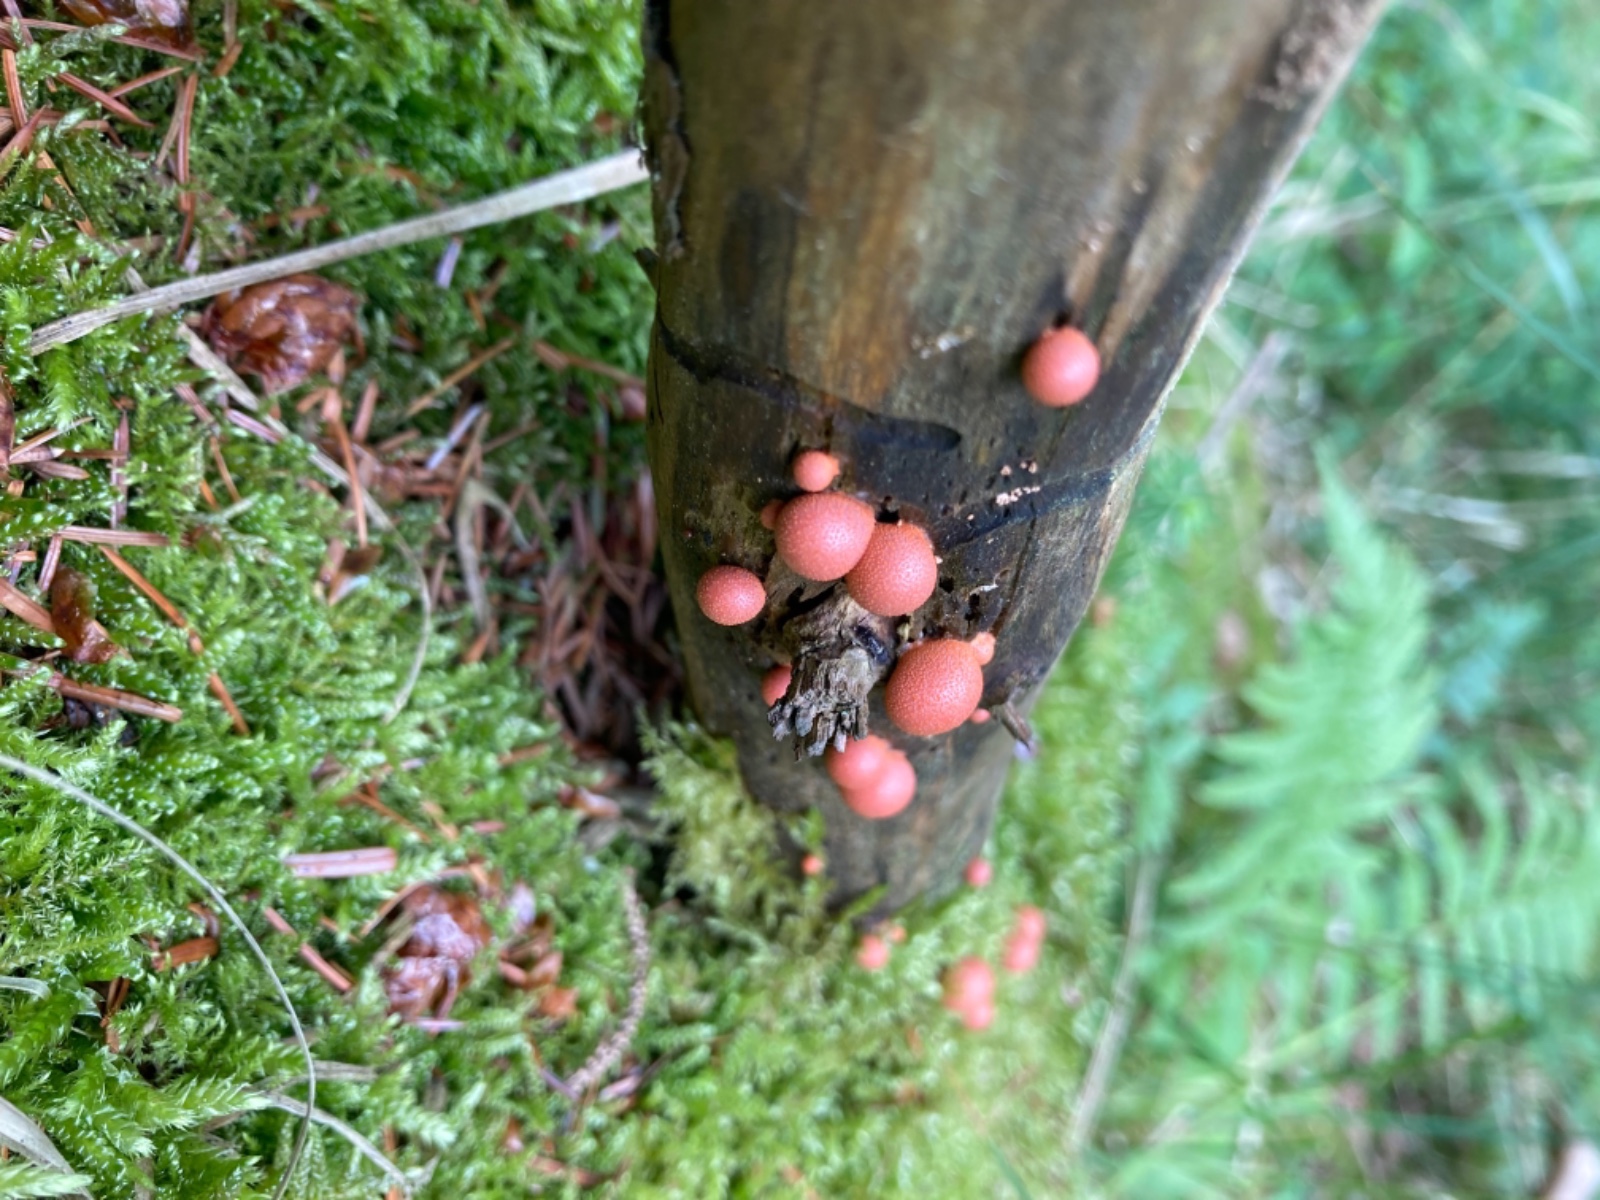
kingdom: Protozoa
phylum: Mycetozoa
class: Myxomycetes
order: Cribrariales
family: Tubiferaceae
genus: Lycogala
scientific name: Lycogala epidendrum
